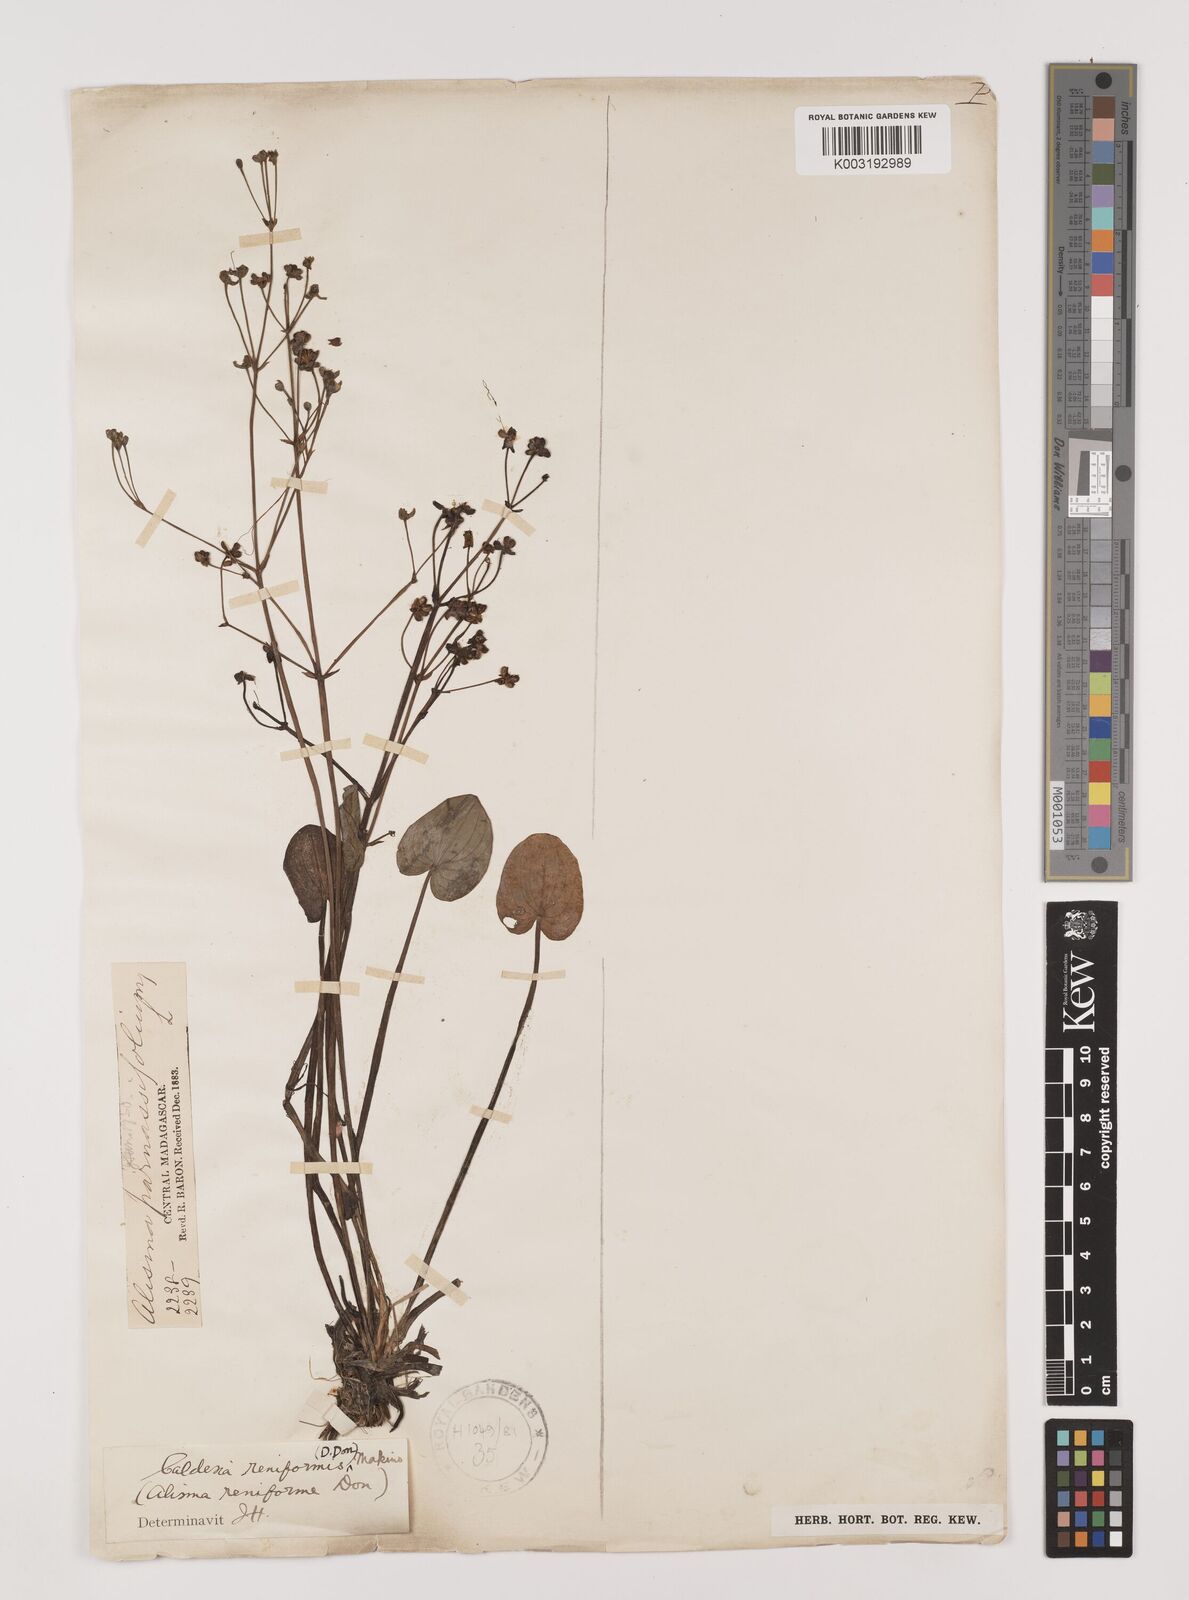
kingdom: Plantae
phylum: Tracheophyta
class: Liliopsida
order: Alismatales
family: Alismataceae
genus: Caldesia
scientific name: Caldesia parnassifolia
